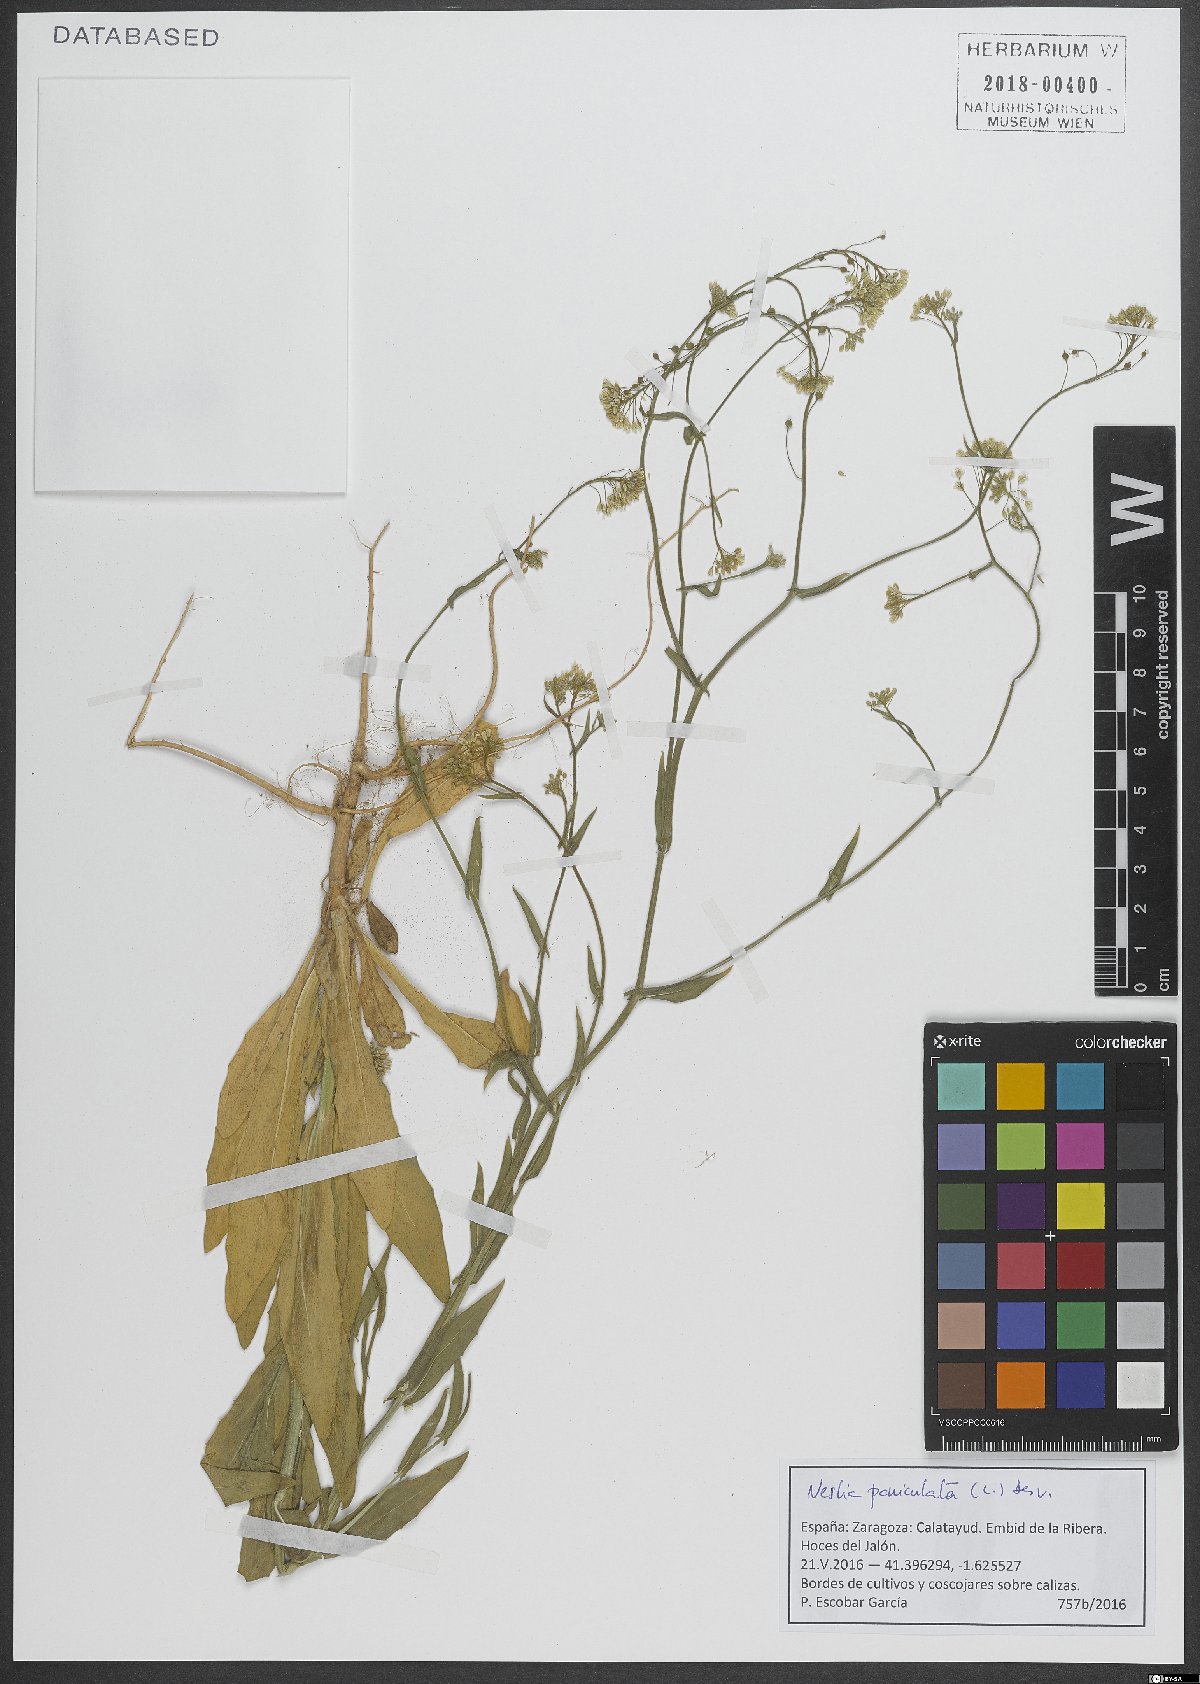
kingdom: Plantae
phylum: Tracheophyta
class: Magnoliopsida
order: Brassicales
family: Brassicaceae
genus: Neslia
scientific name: Neslia paniculata
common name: Ball mustard
